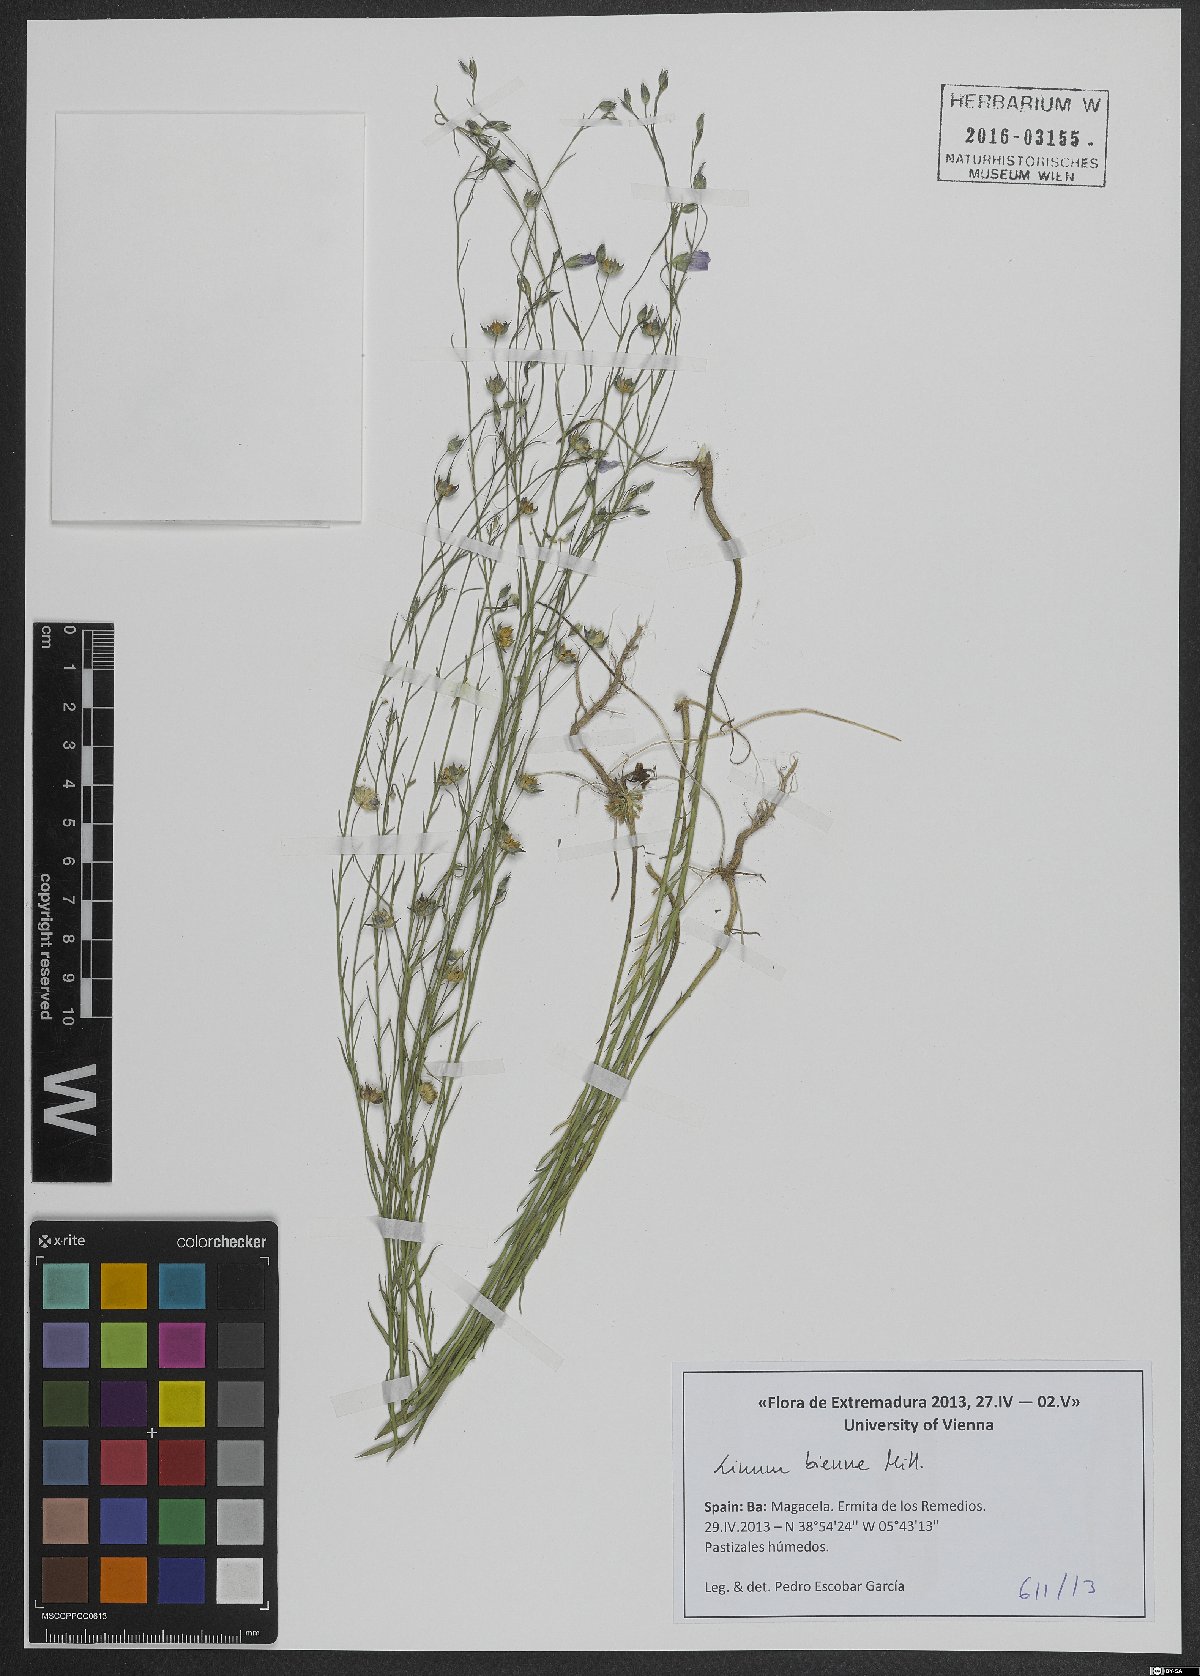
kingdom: Plantae
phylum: Tracheophyta
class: Magnoliopsida
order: Malpighiales
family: Linaceae
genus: Linum
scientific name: Linum bienne
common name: Pale flax
